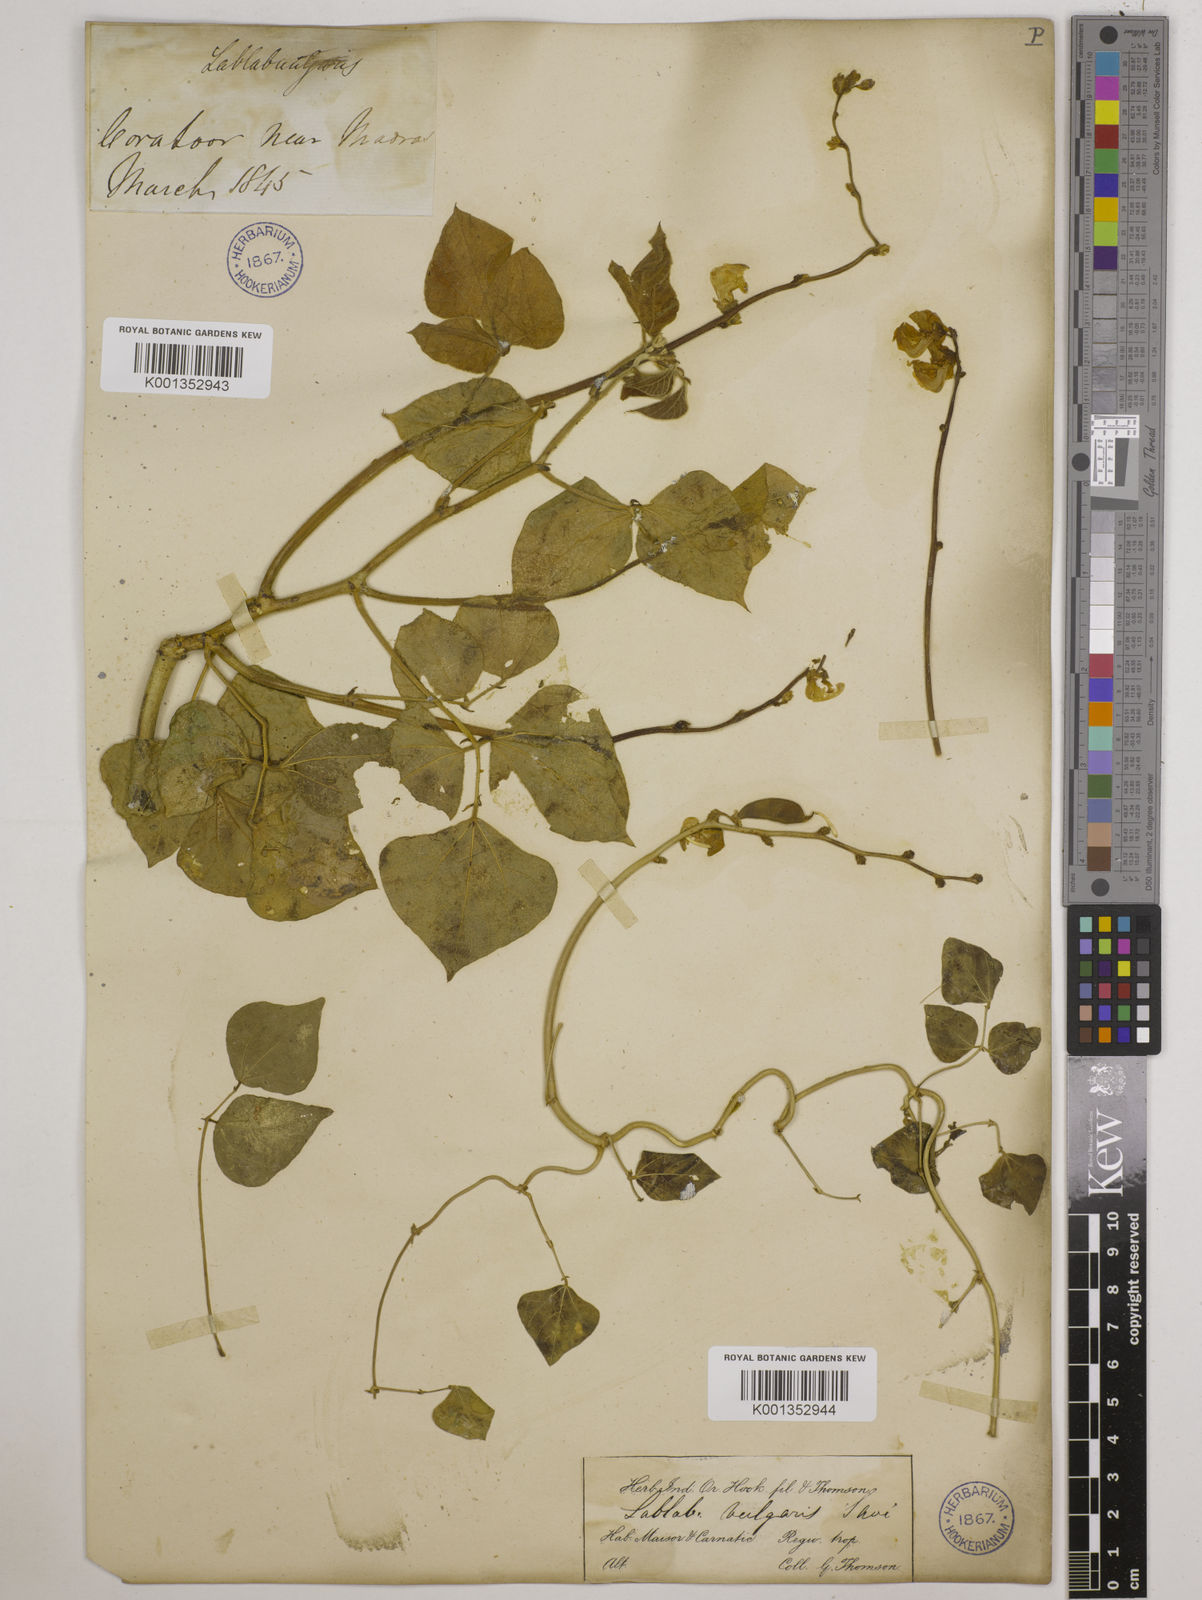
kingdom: Plantae
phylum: Tracheophyta
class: Magnoliopsida
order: Fabales
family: Fabaceae
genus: Lablab
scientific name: Lablab purpureus
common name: Lablab-bean
